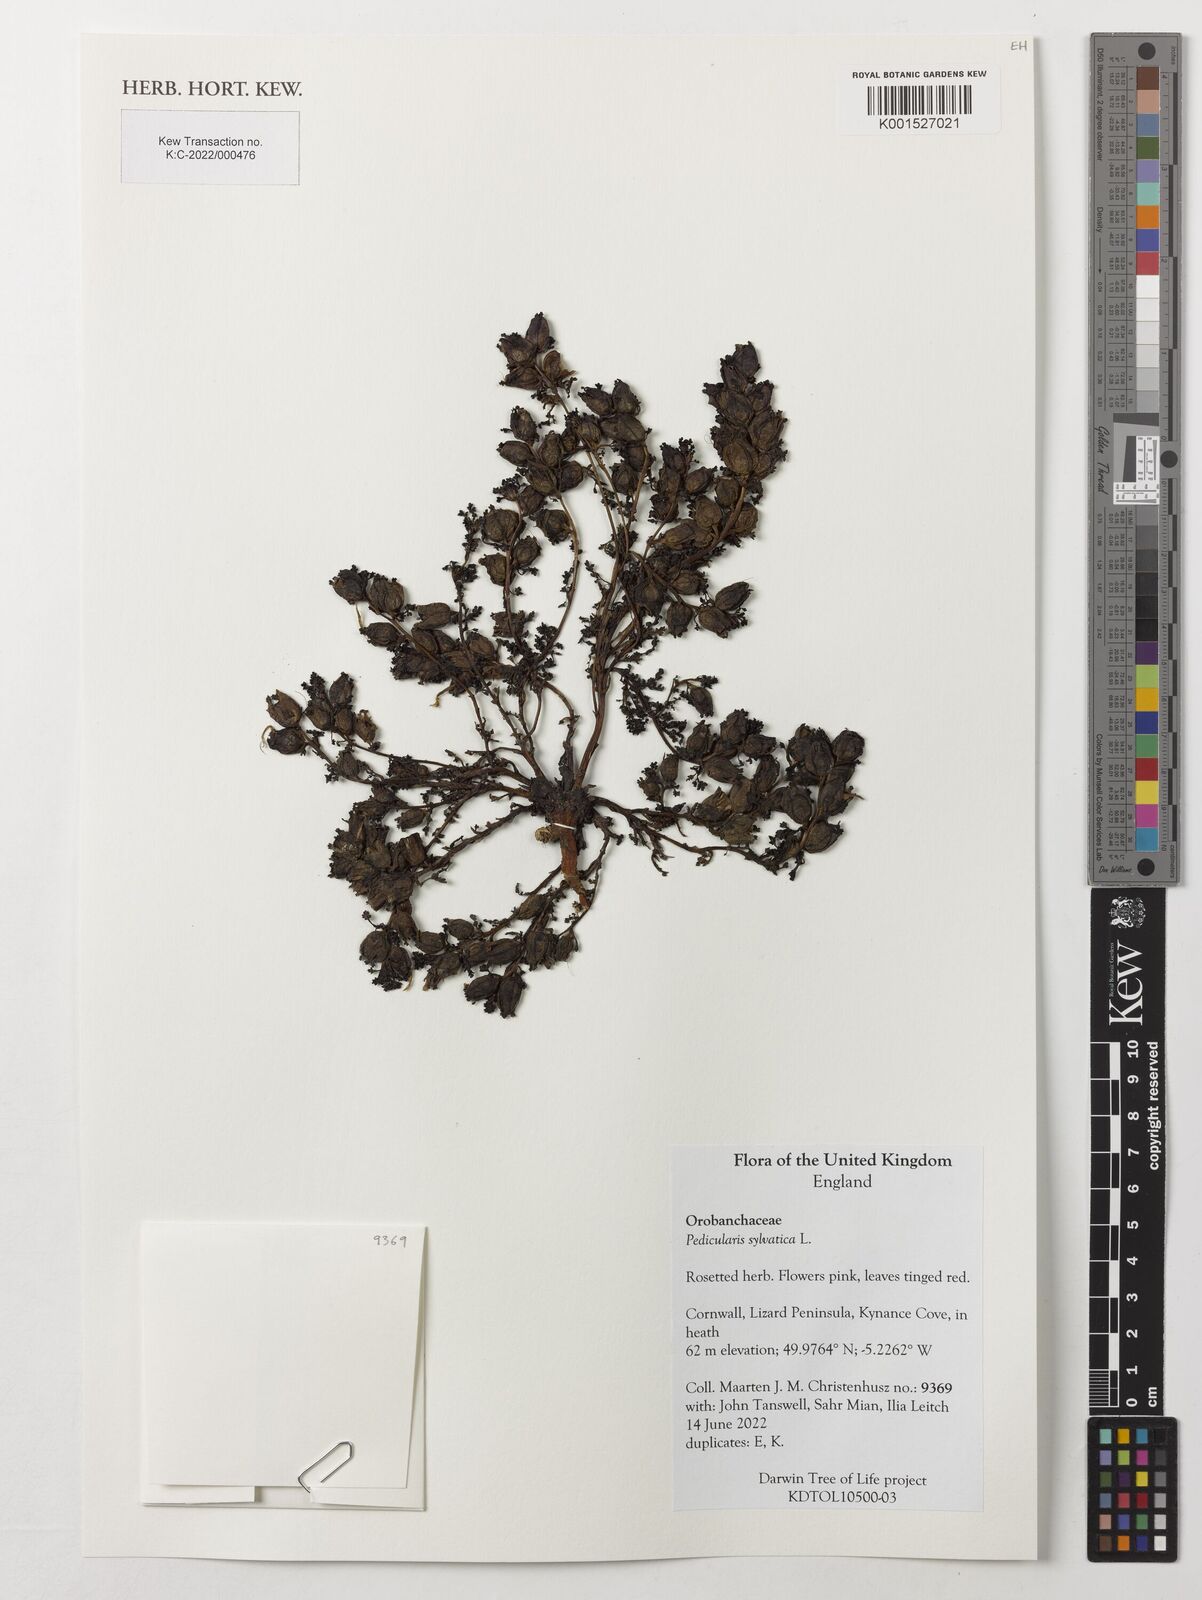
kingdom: Plantae
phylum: Tracheophyta
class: Magnoliopsida
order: Lamiales
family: Orobanchaceae
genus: Pedicularis
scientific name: Pedicularis sylvatica
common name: Lousewort
